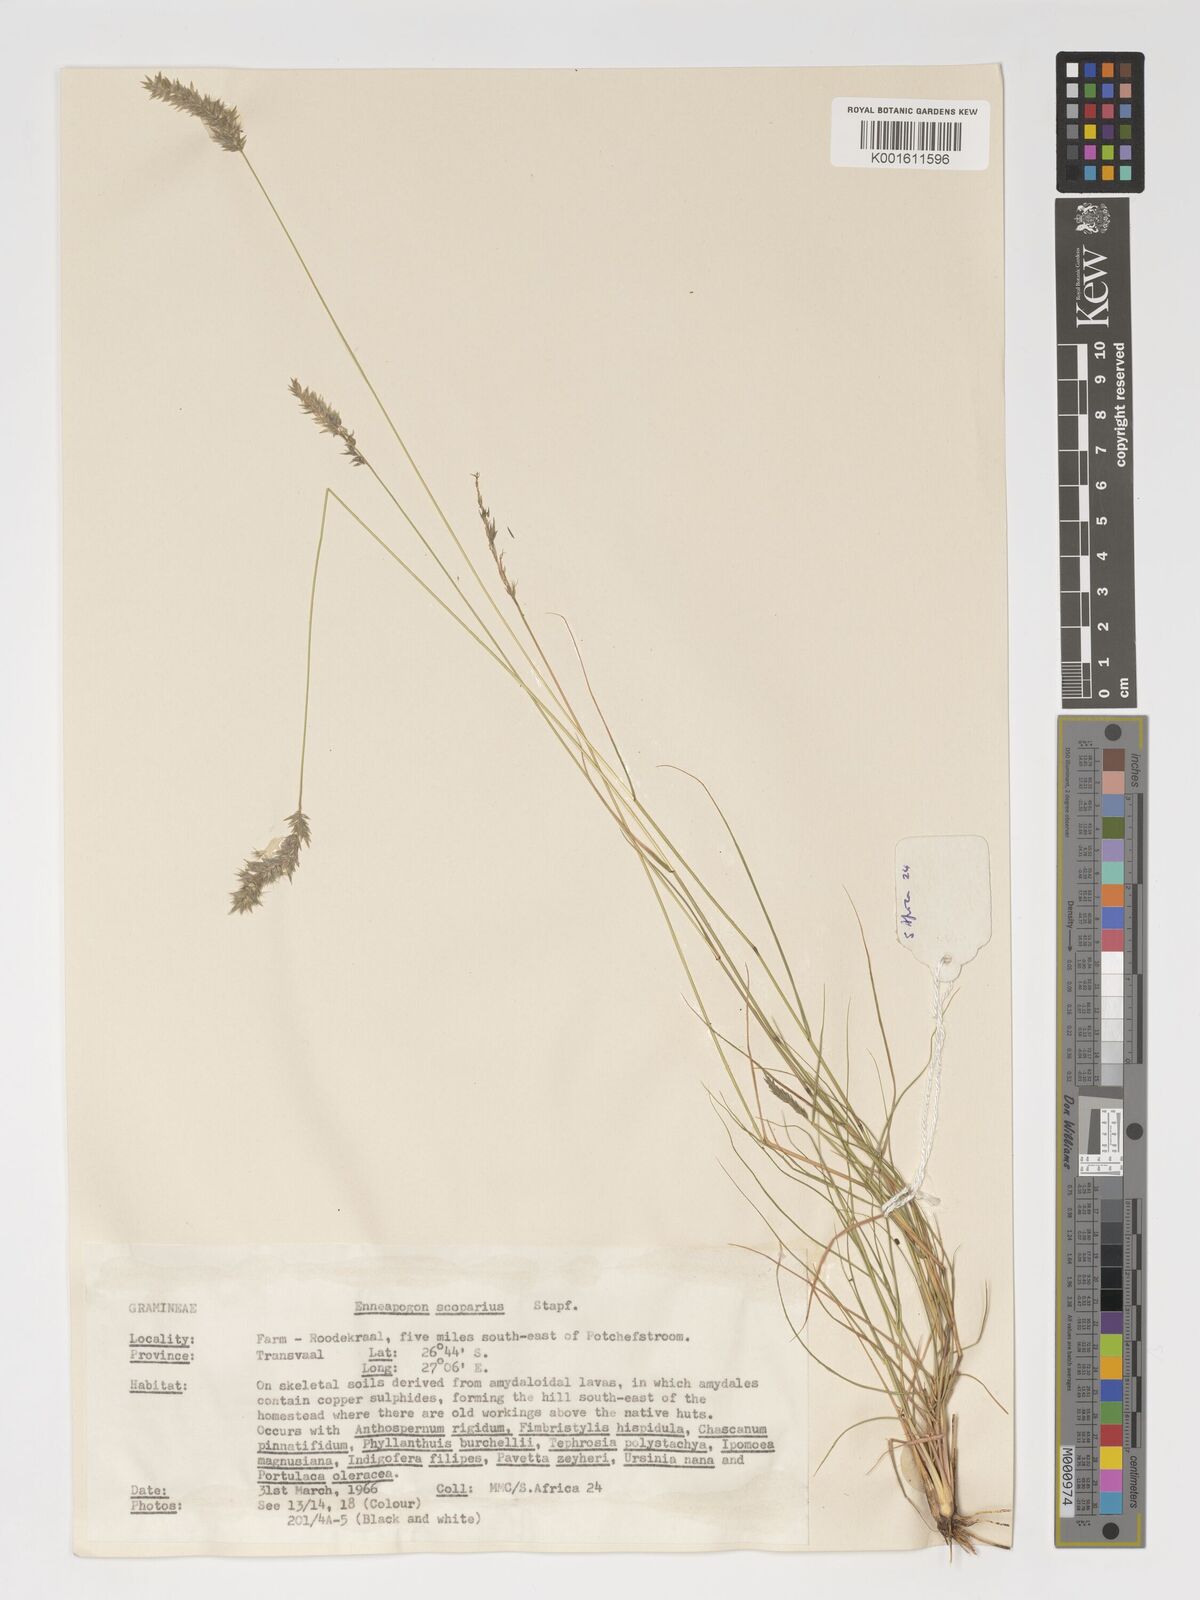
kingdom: Plantae
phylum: Tracheophyta
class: Liliopsida
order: Poales
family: Poaceae
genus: Enneapogon
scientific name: Enneapogon scoparius
